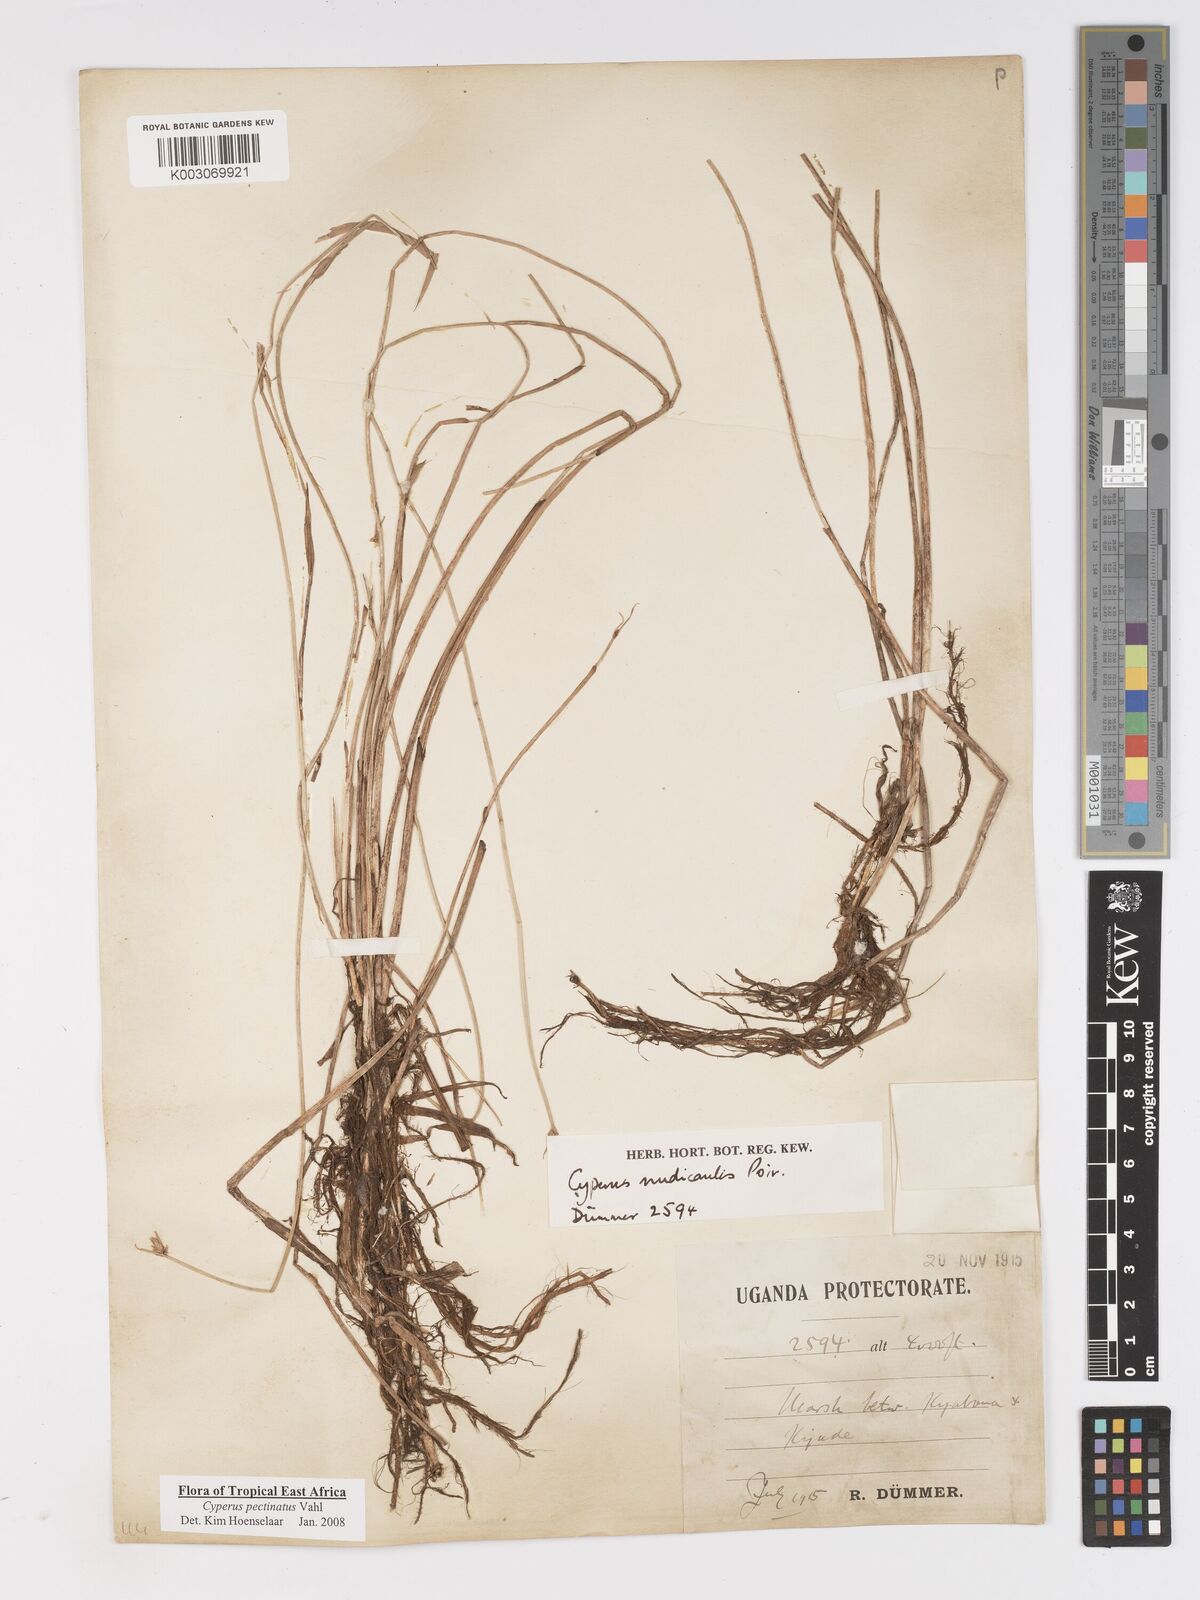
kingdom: Plantae
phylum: Tracheophyta
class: Liliopsida
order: Poales
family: Cyperaceae
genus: Cyperus
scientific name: Cyperus pectinatus
